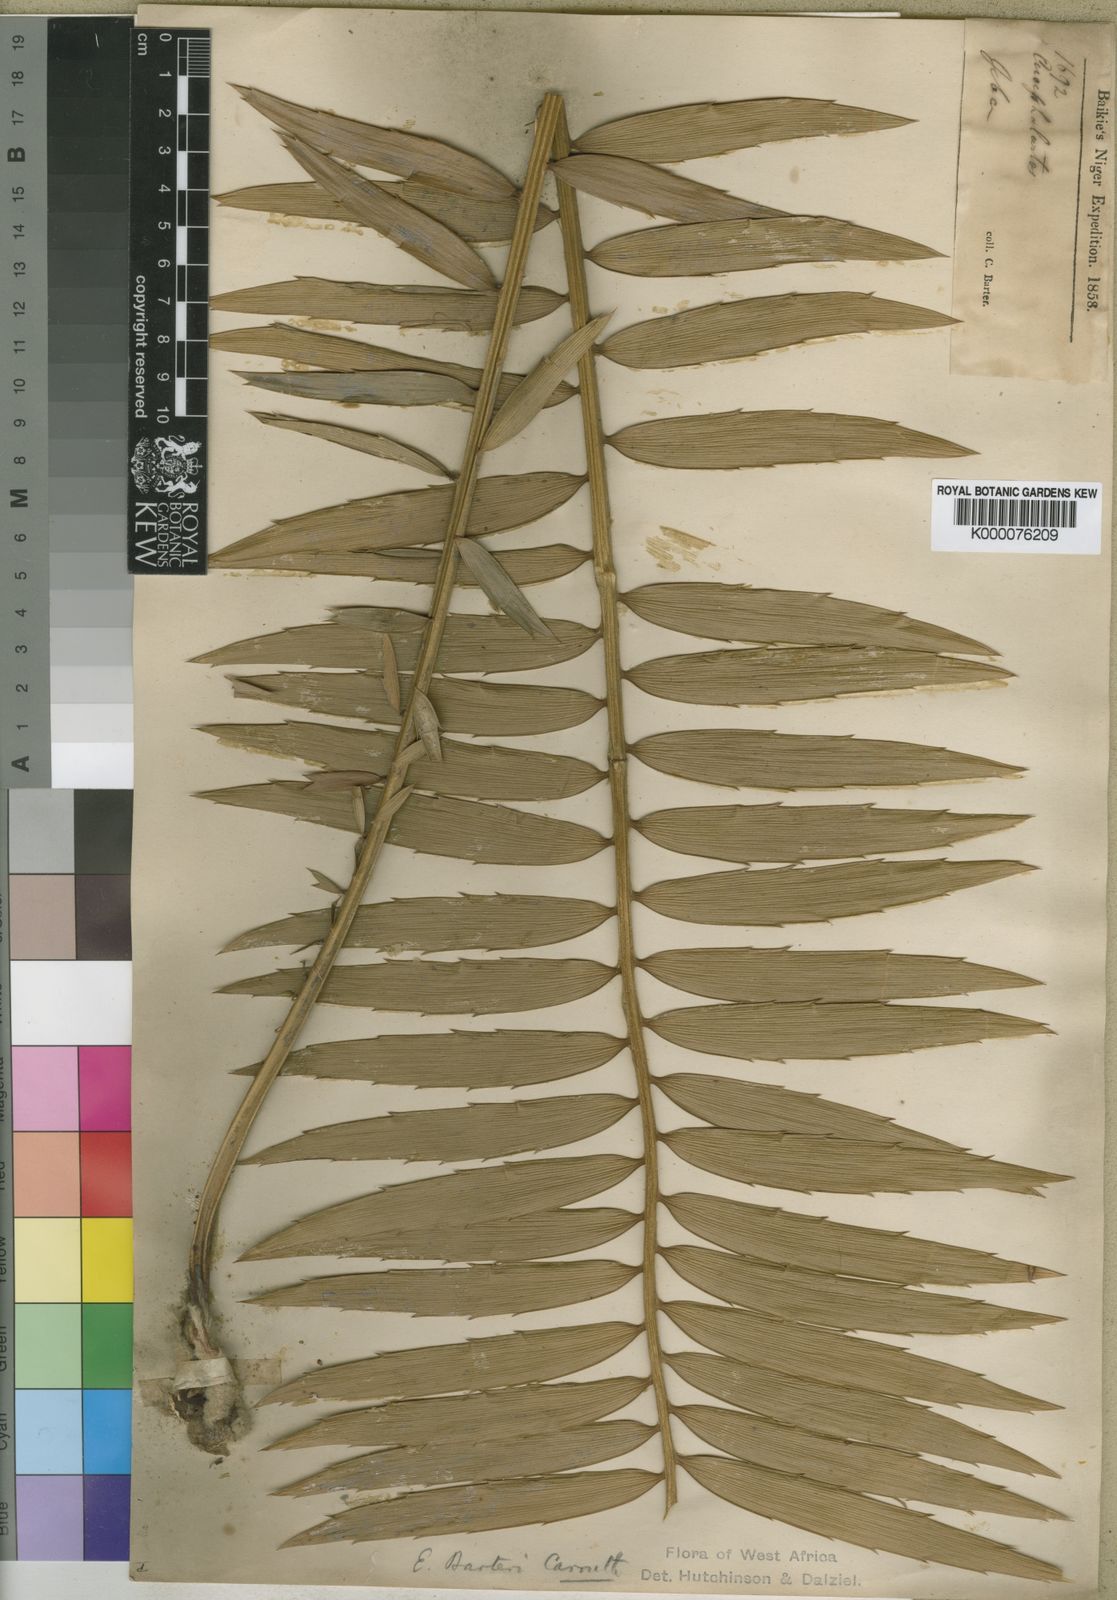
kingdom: Plantae
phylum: Tracheophyta
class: Cycadopsida
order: Cycadales
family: Zamiaceae
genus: Encephalartos
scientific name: Encephalartos barteri
